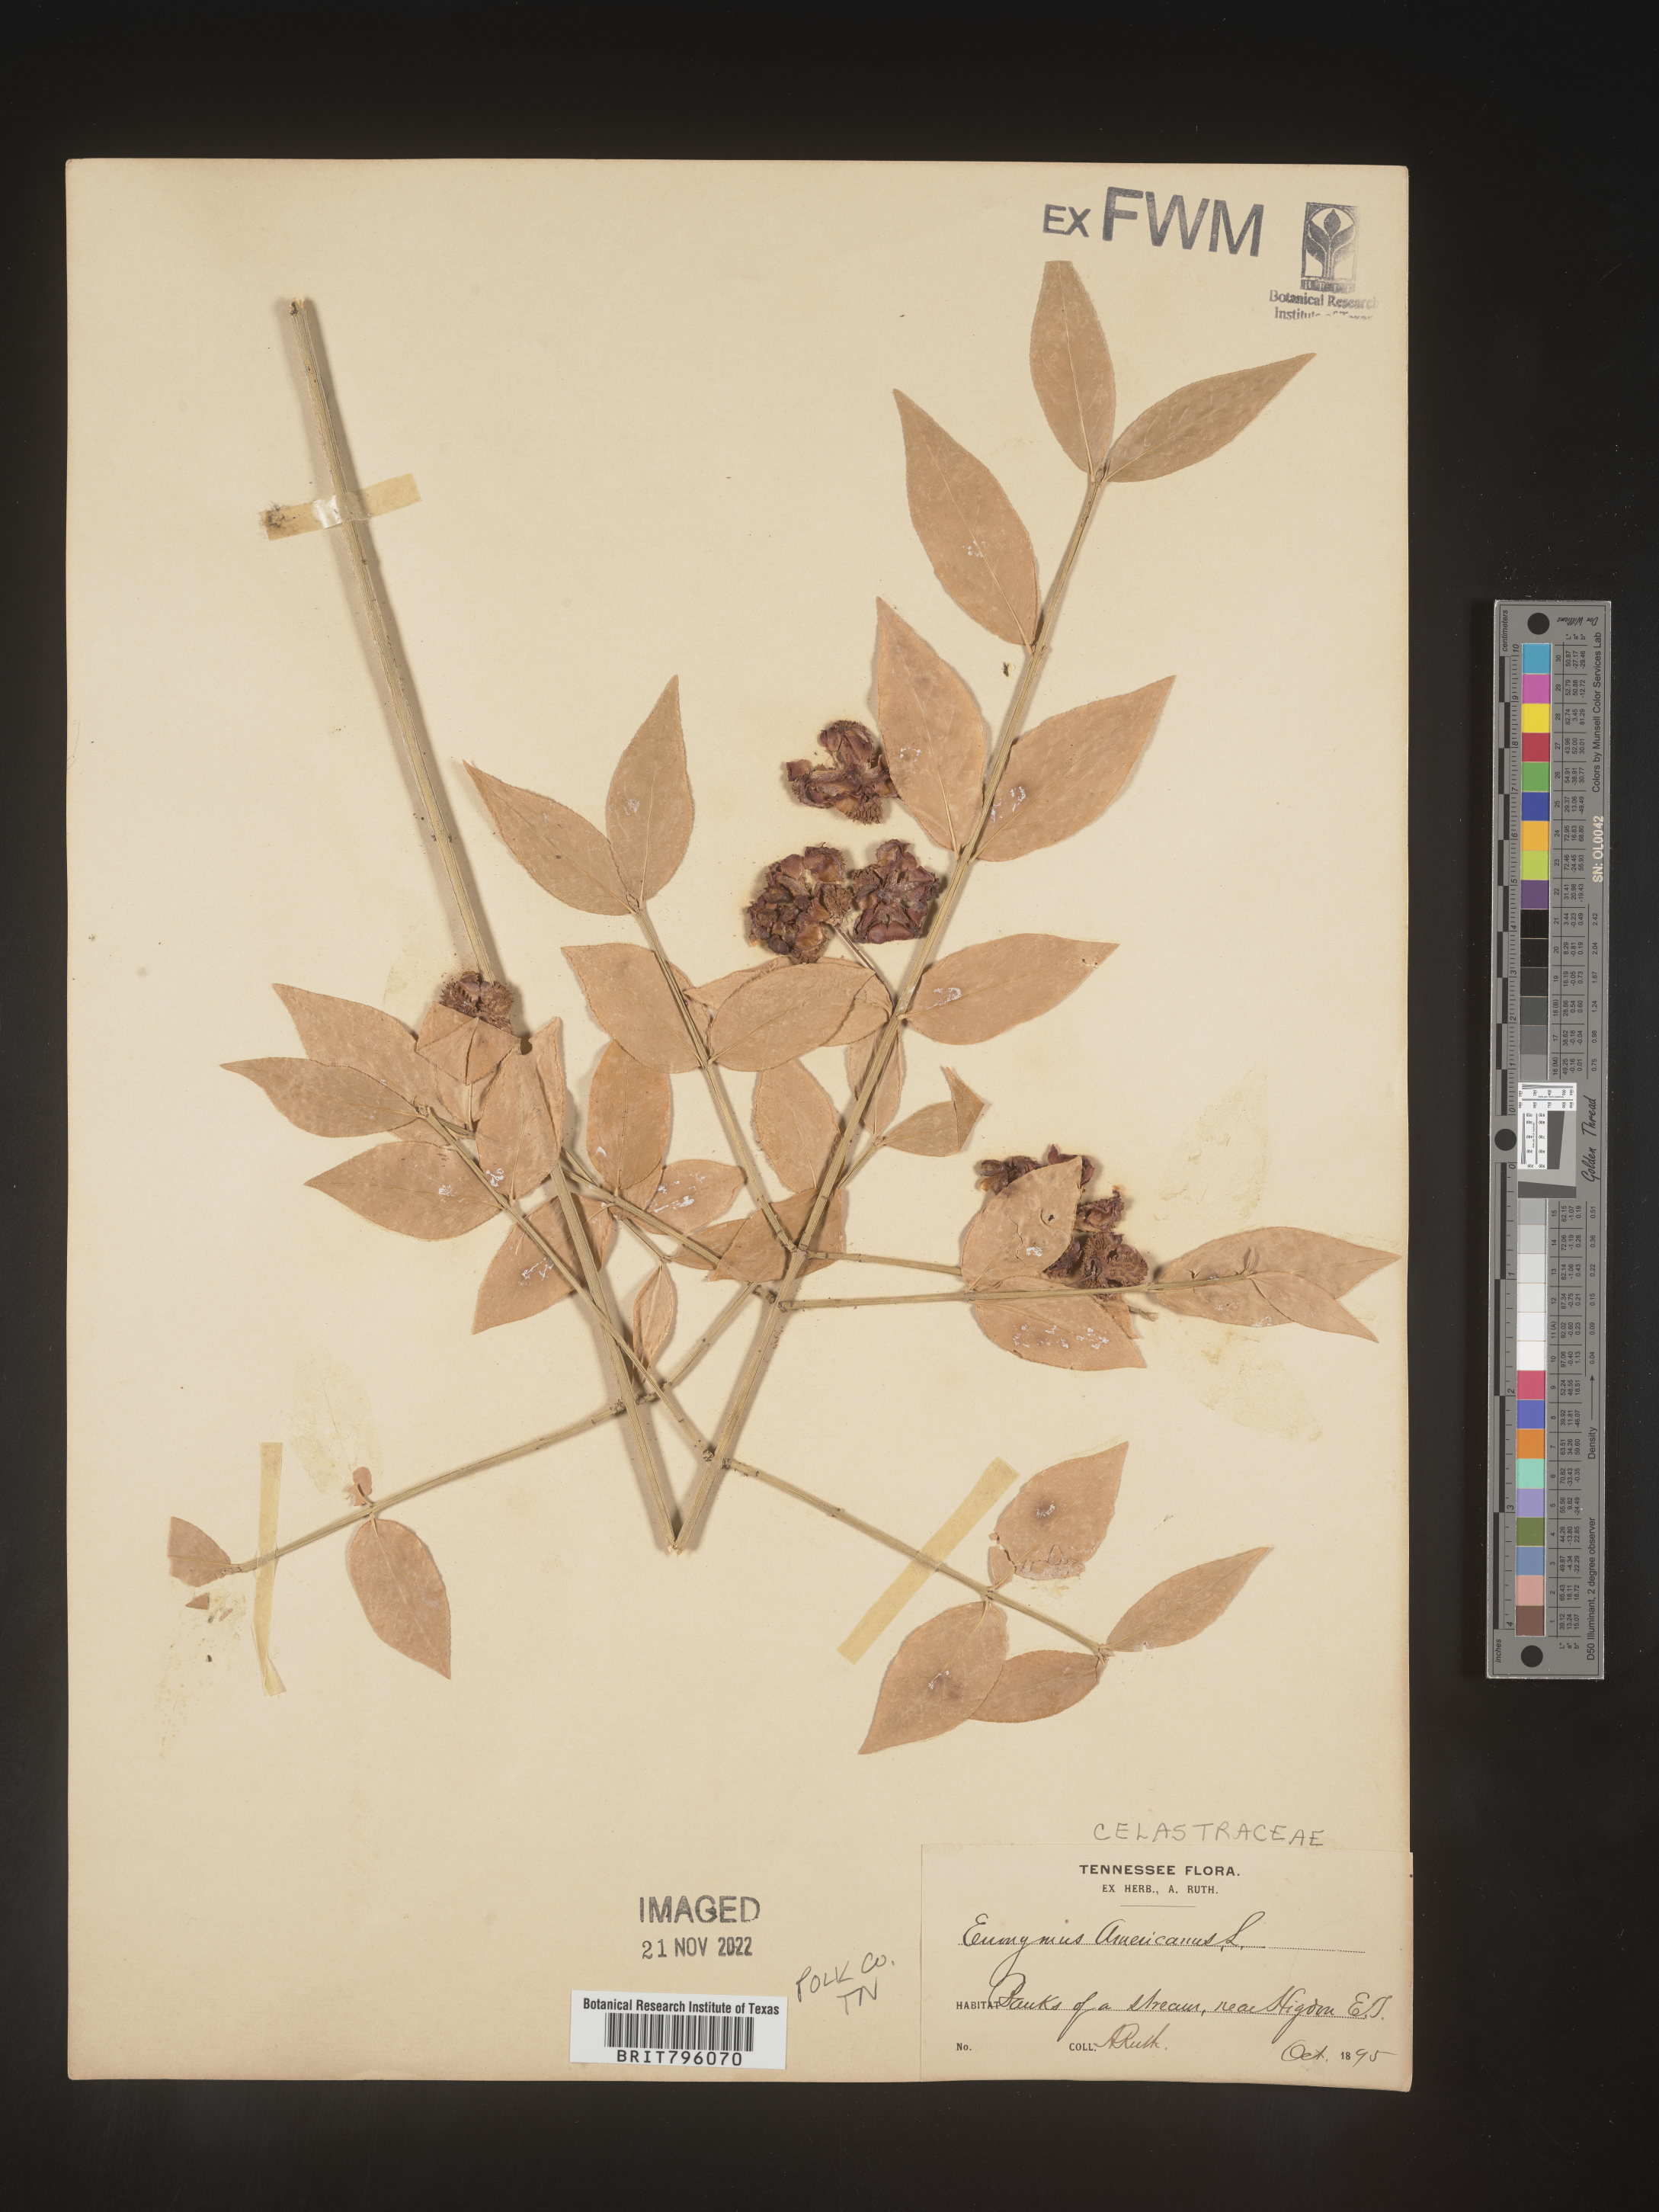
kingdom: Plantae
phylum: Tracheophyta
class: Magnoliopsida
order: Celastrales
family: Celastraceae
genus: Euonymus
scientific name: Euonymus americanus
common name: Bursting-heart
